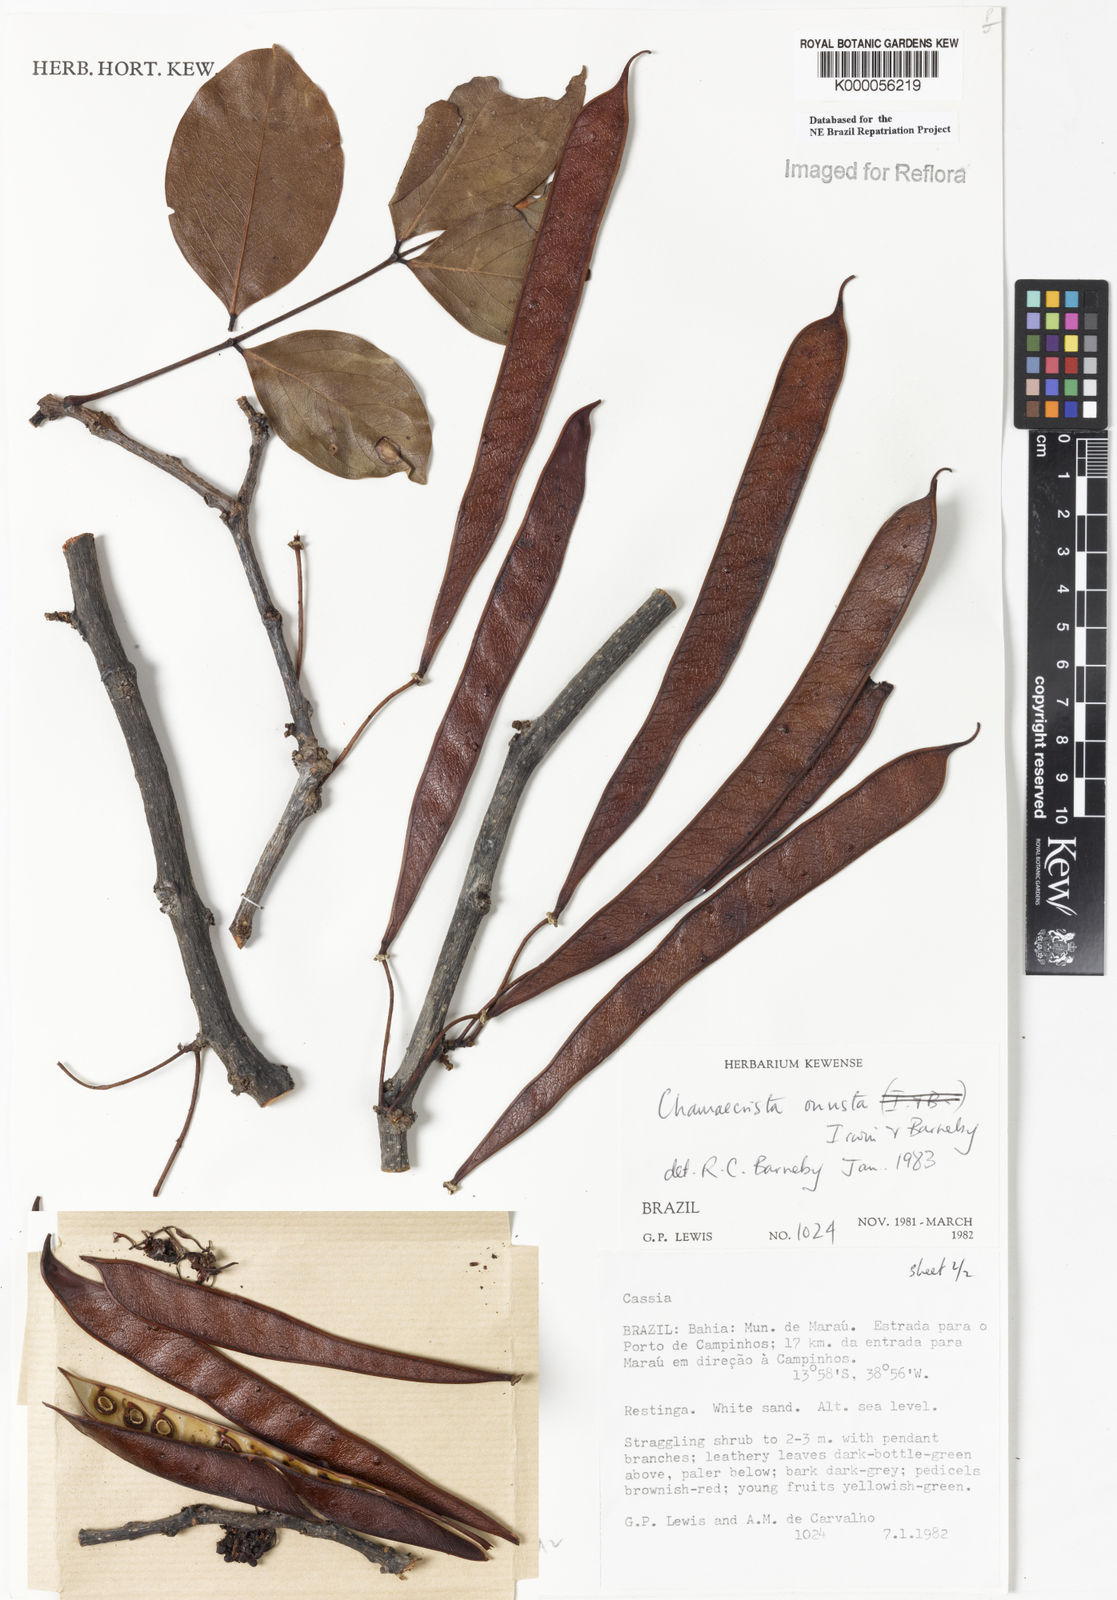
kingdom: Plantae
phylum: Tracheophyta
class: Magnoliopsida
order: Fabales
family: Fabaceae
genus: Chamaecrista
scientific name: Chamaecrista onusta
